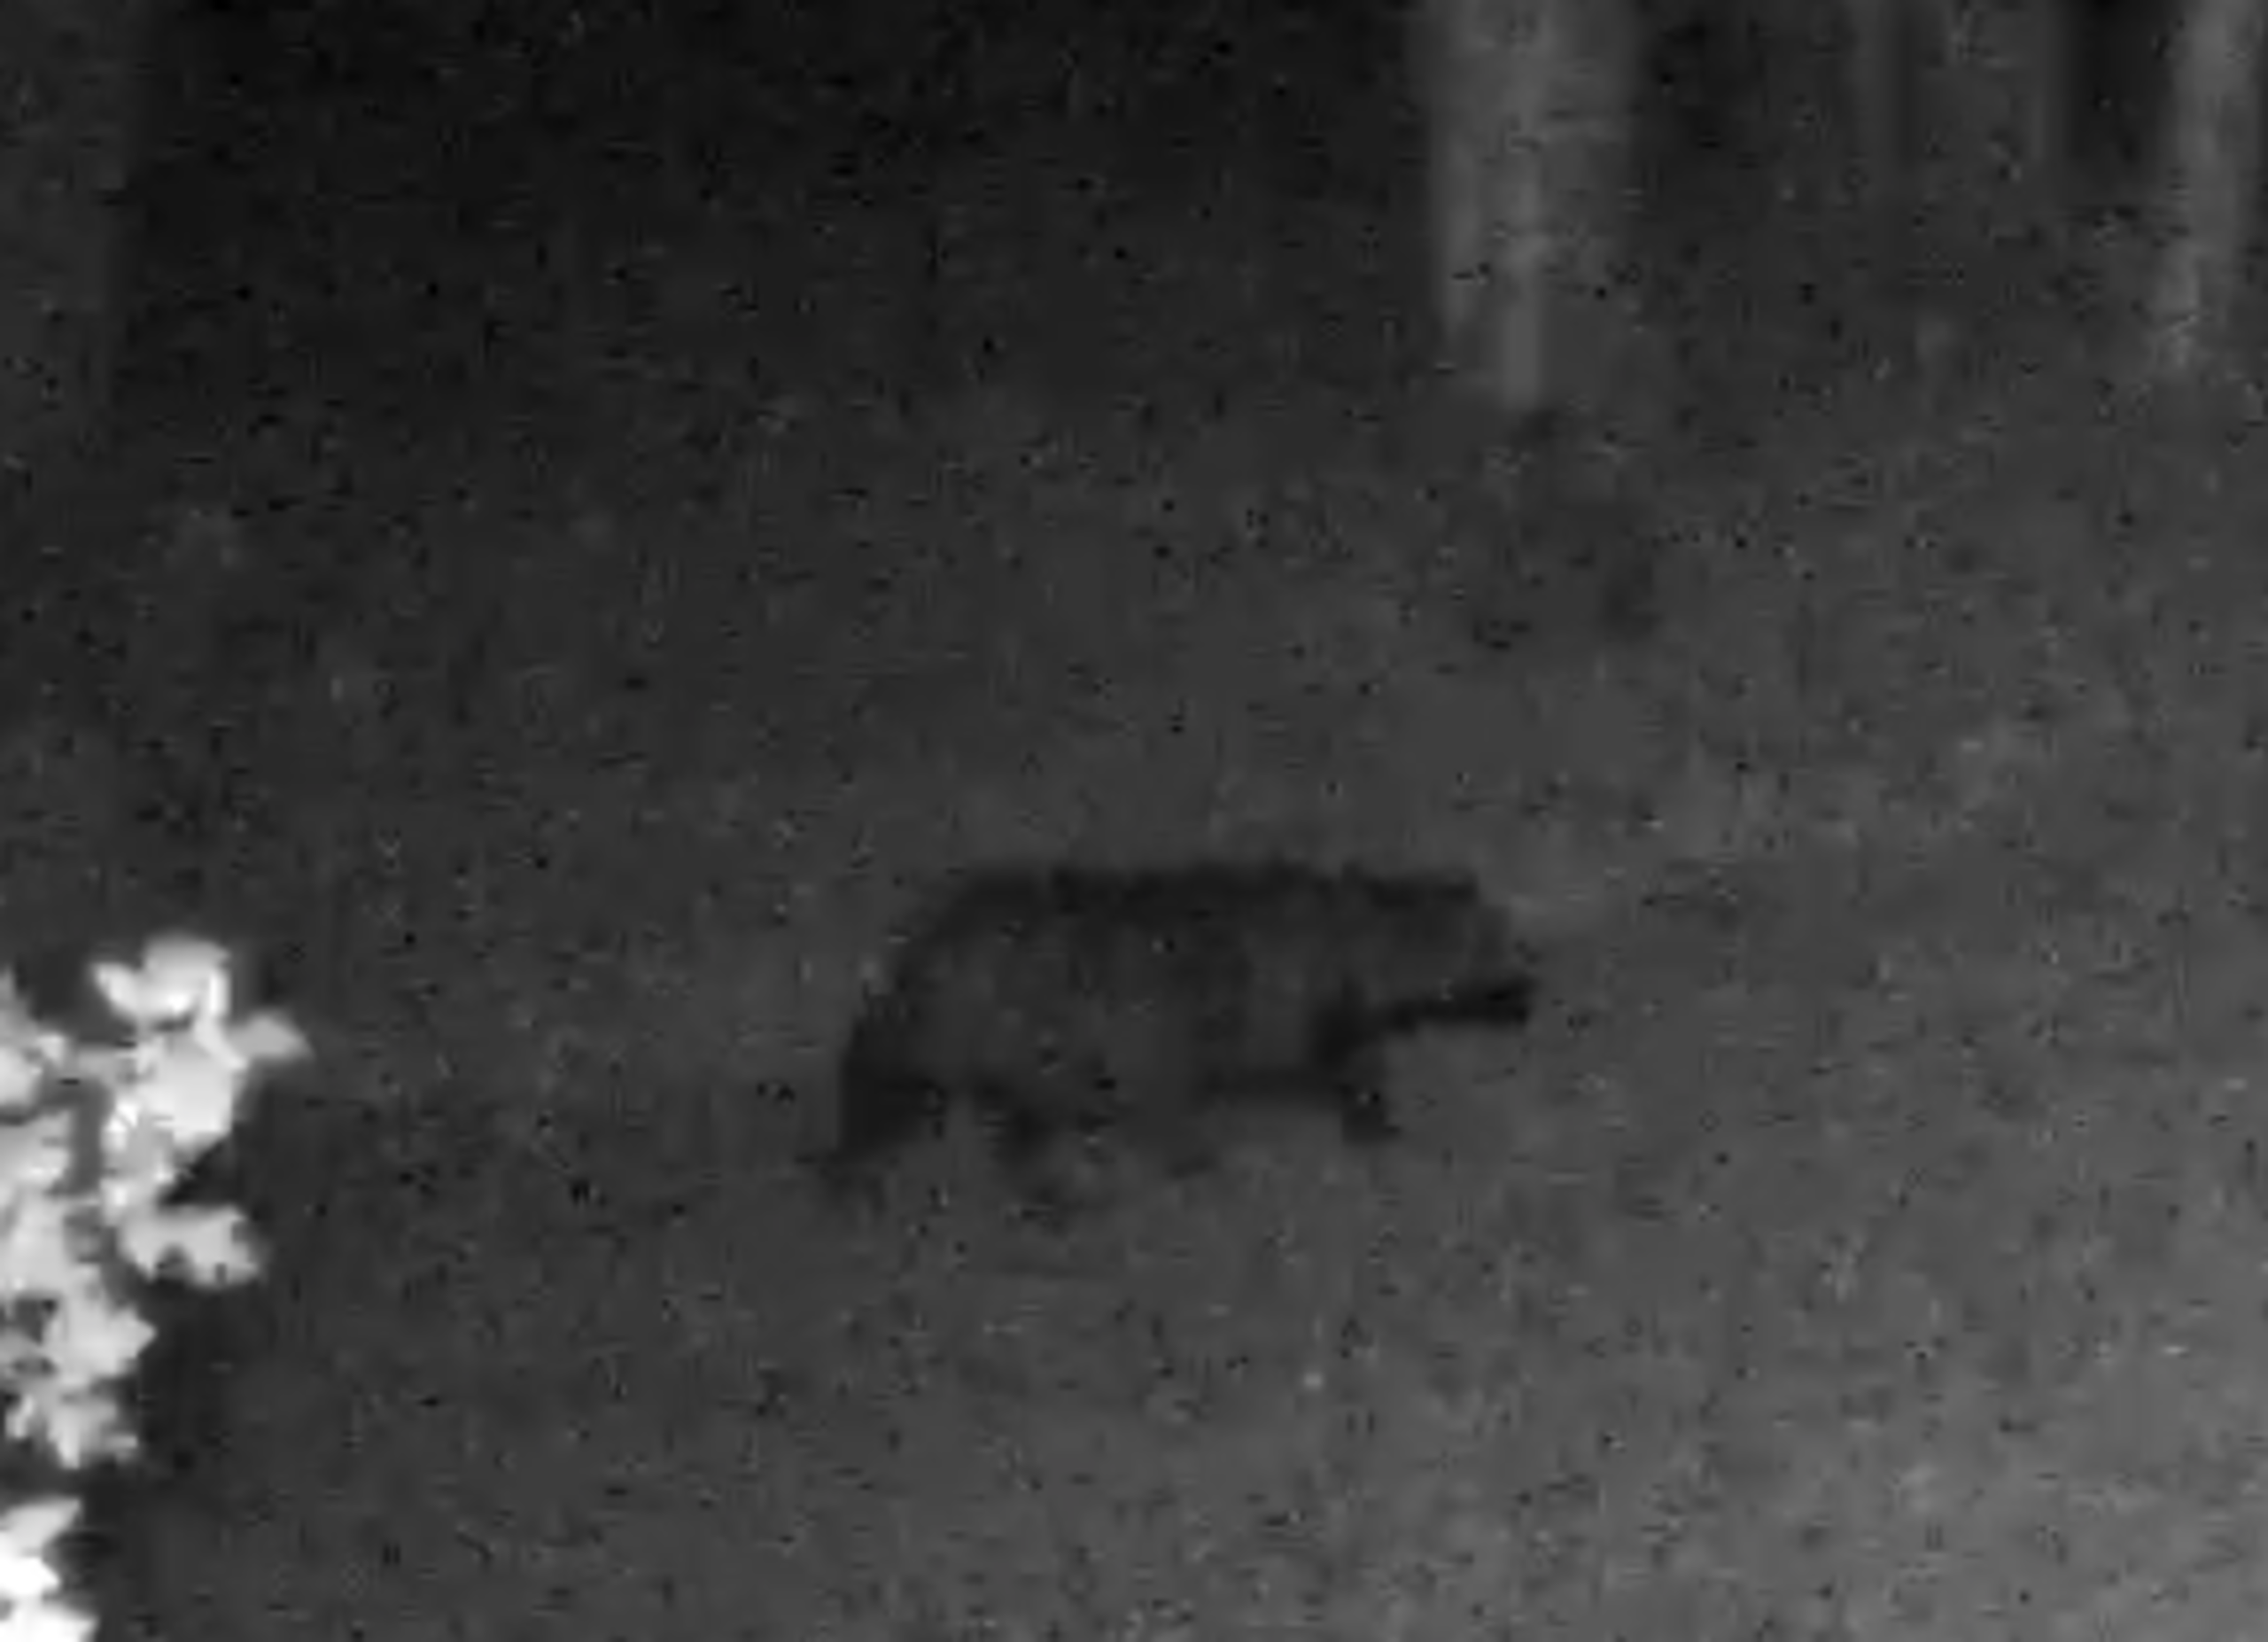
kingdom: Animalia
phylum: Chordata
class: Mammalia
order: Carnivora
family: Canidae
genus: Nyctereutes
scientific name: Nyctereutes procyonoides
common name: Mårhund
